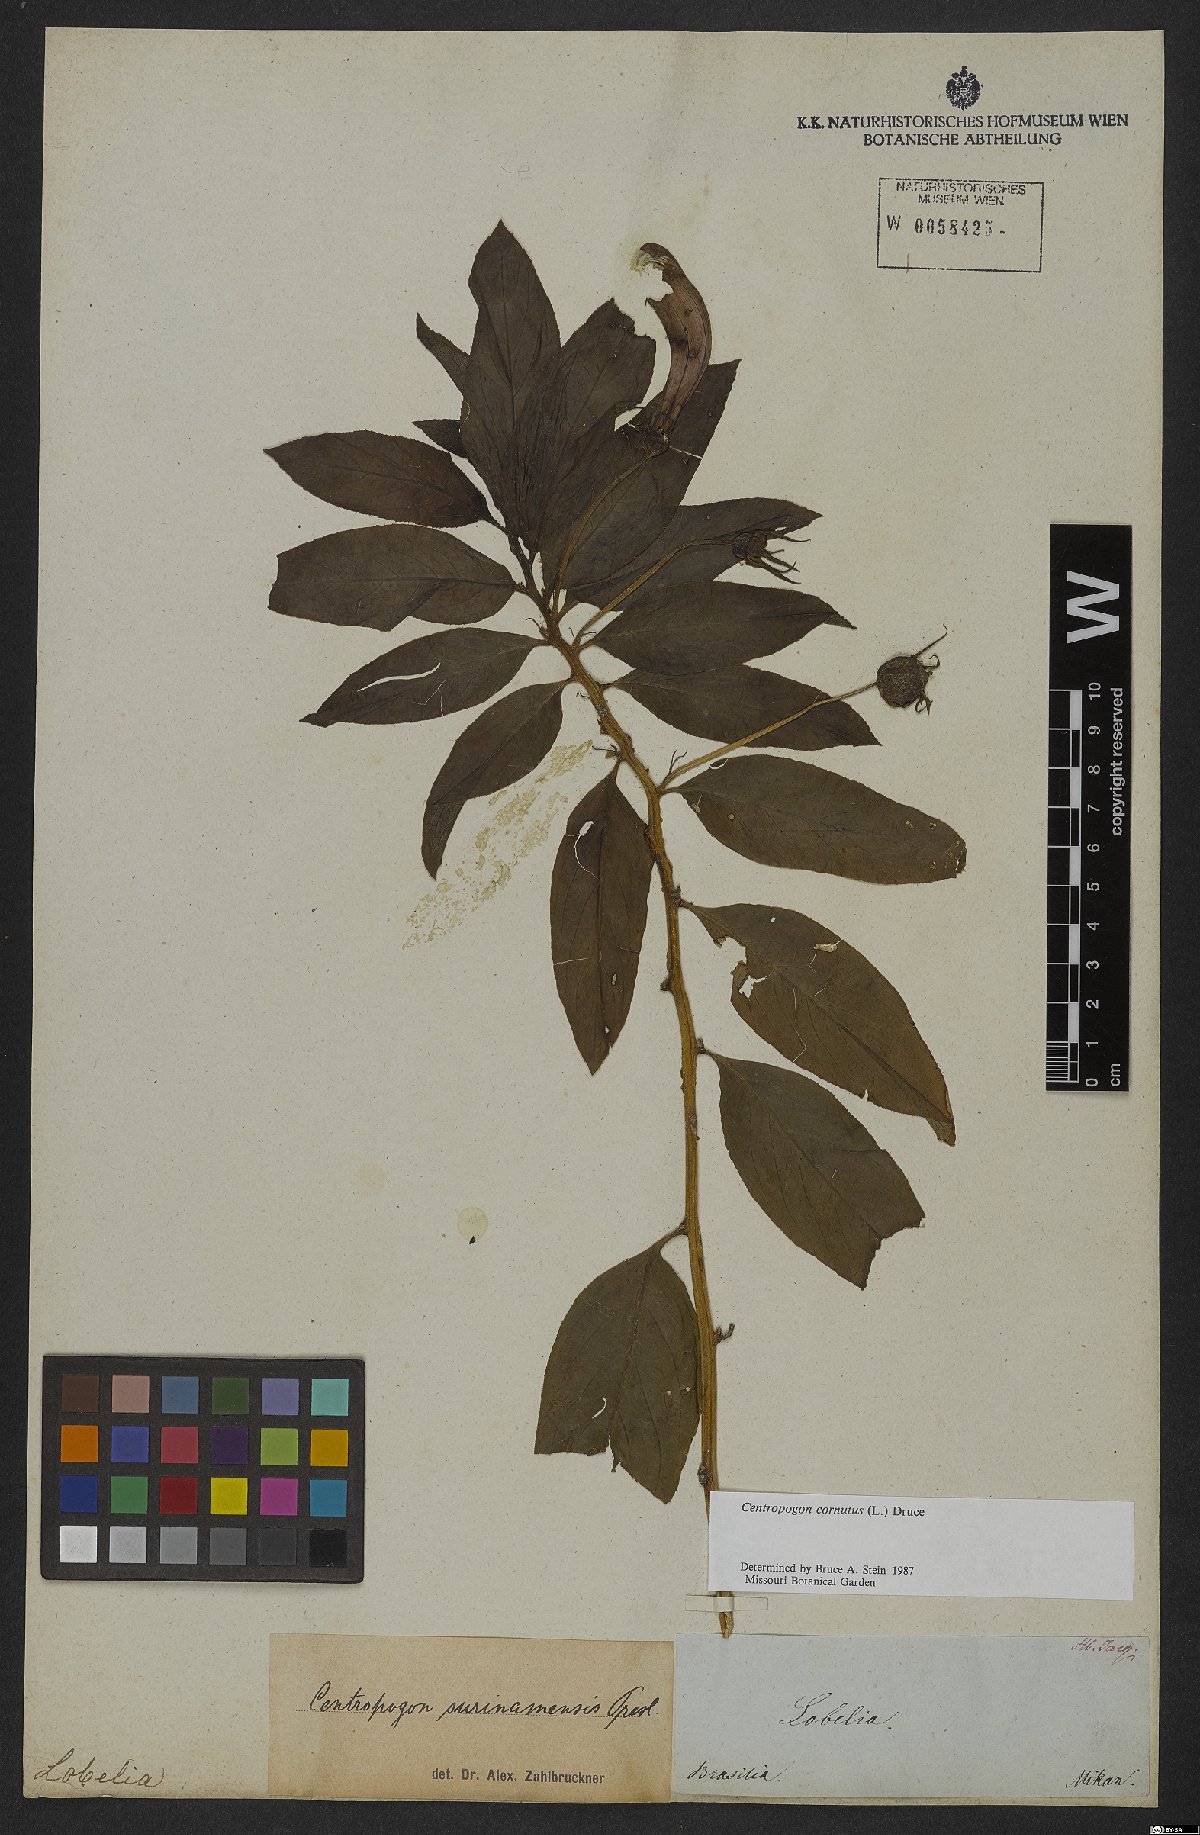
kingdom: Plantae
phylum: Tracheophyta
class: Magnoliopsida
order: Asterales
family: Campanulaceae
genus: Centropogon
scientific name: Centropogon cornutus
